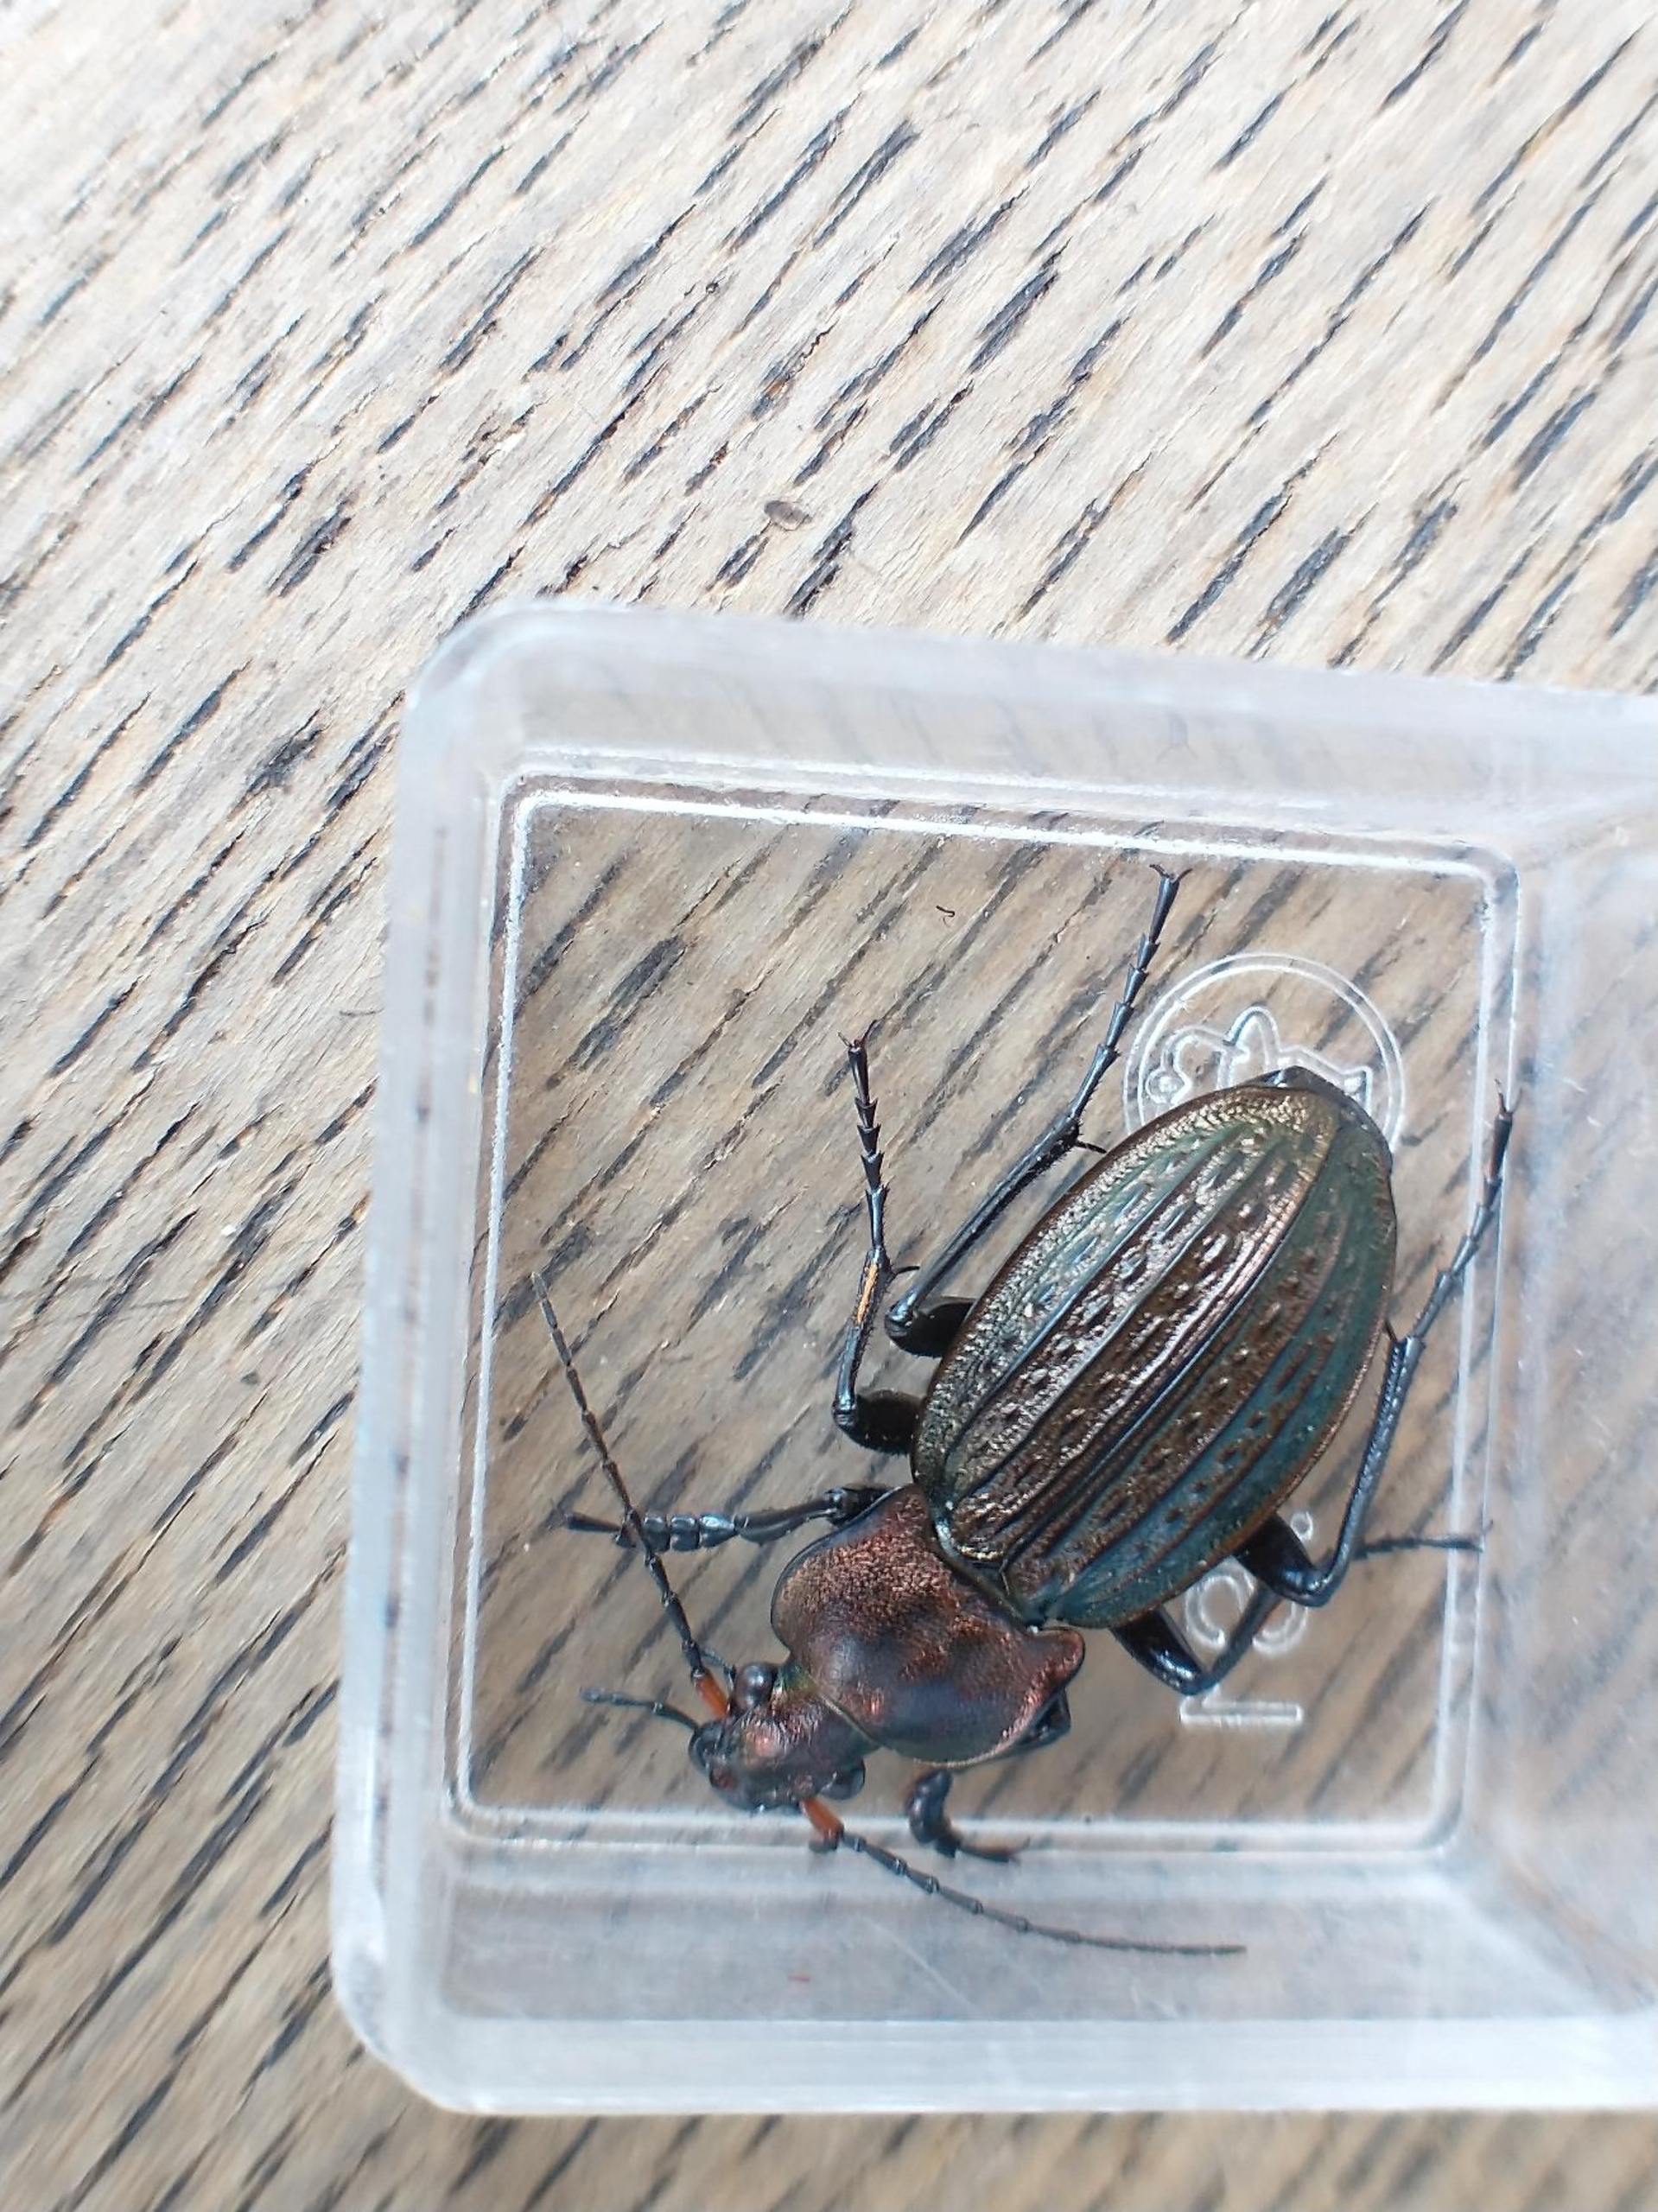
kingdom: Animalia
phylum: Arthropoda
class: Insecta
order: Coleoptera
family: Carabidae
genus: Carabus
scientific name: Carabus cancellatus
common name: Overdrevsløber
